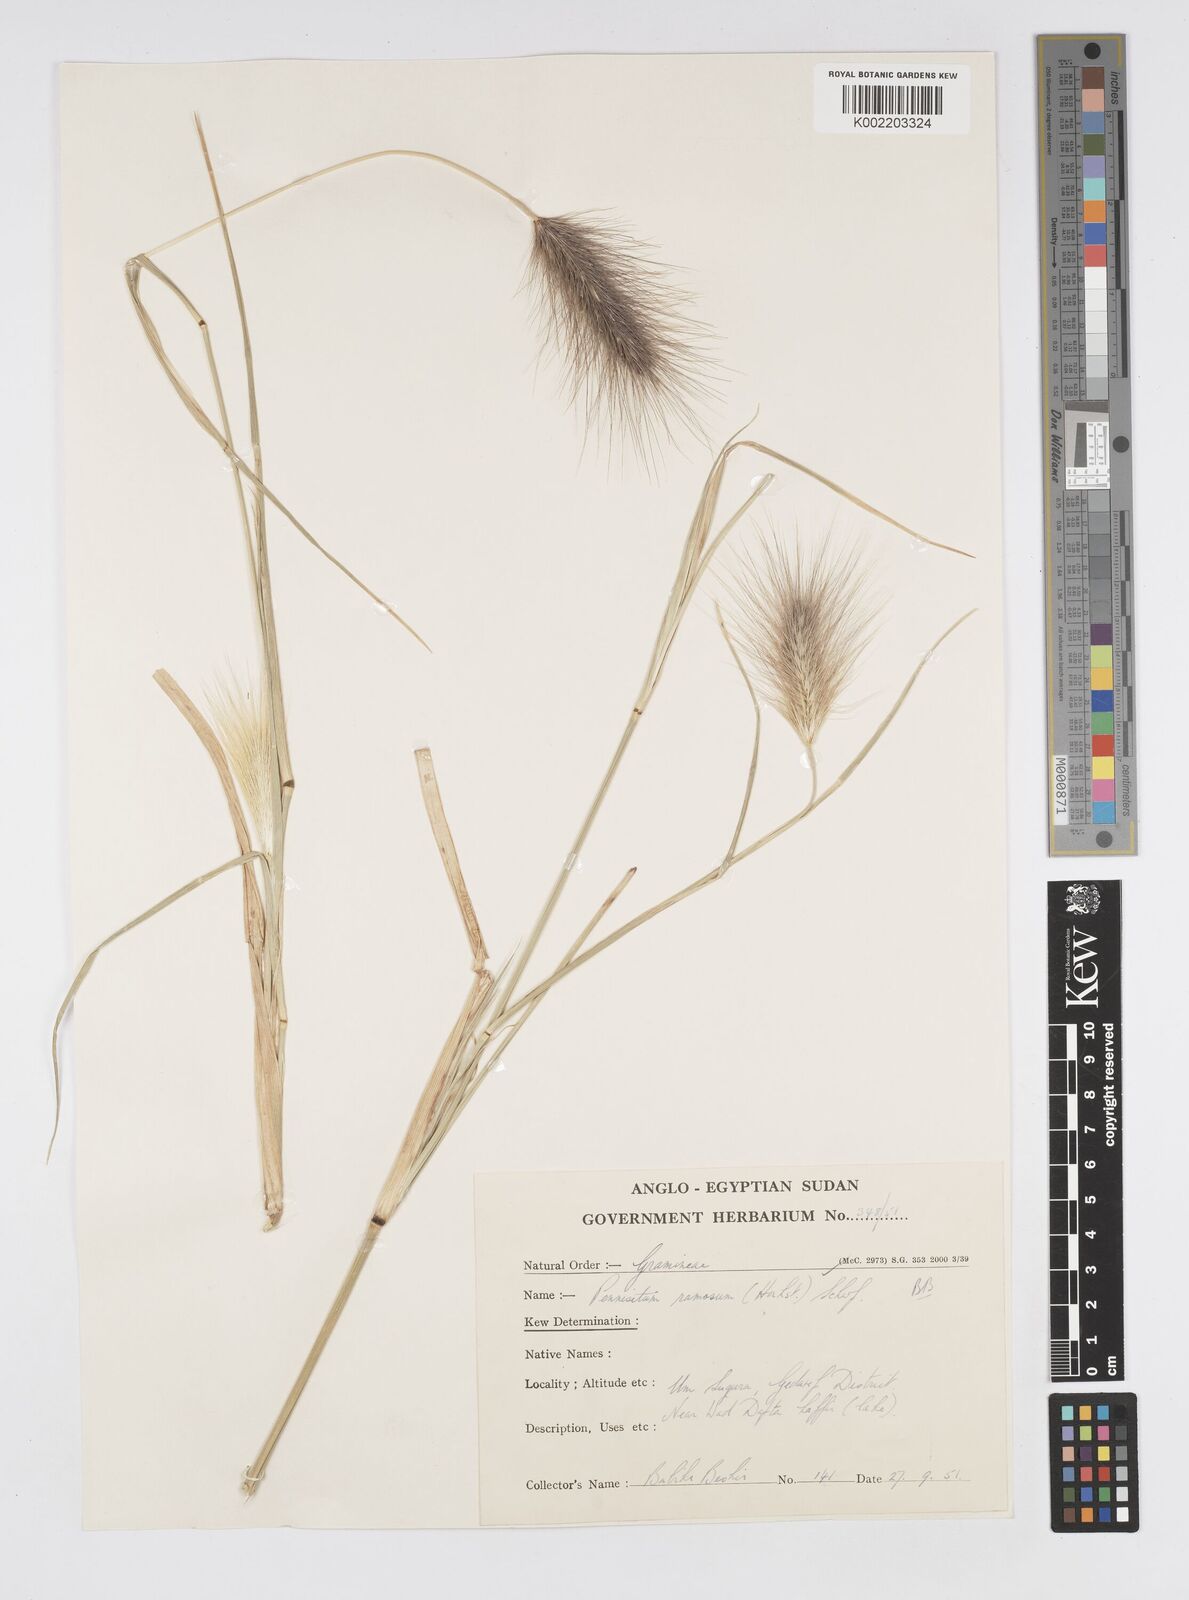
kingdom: Plantae
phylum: Tracheophyta
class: Liliopsida
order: Poales
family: Poaceae
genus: Cenchrus
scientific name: Cenchrus ramosus
